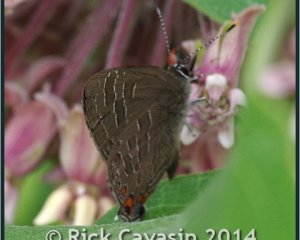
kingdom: Animalia
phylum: Arthropoda
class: Insecta
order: Lepidoptera
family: Lycaenidae
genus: Satyrium
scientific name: Satyrium liparops
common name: Striped Hairstreak
